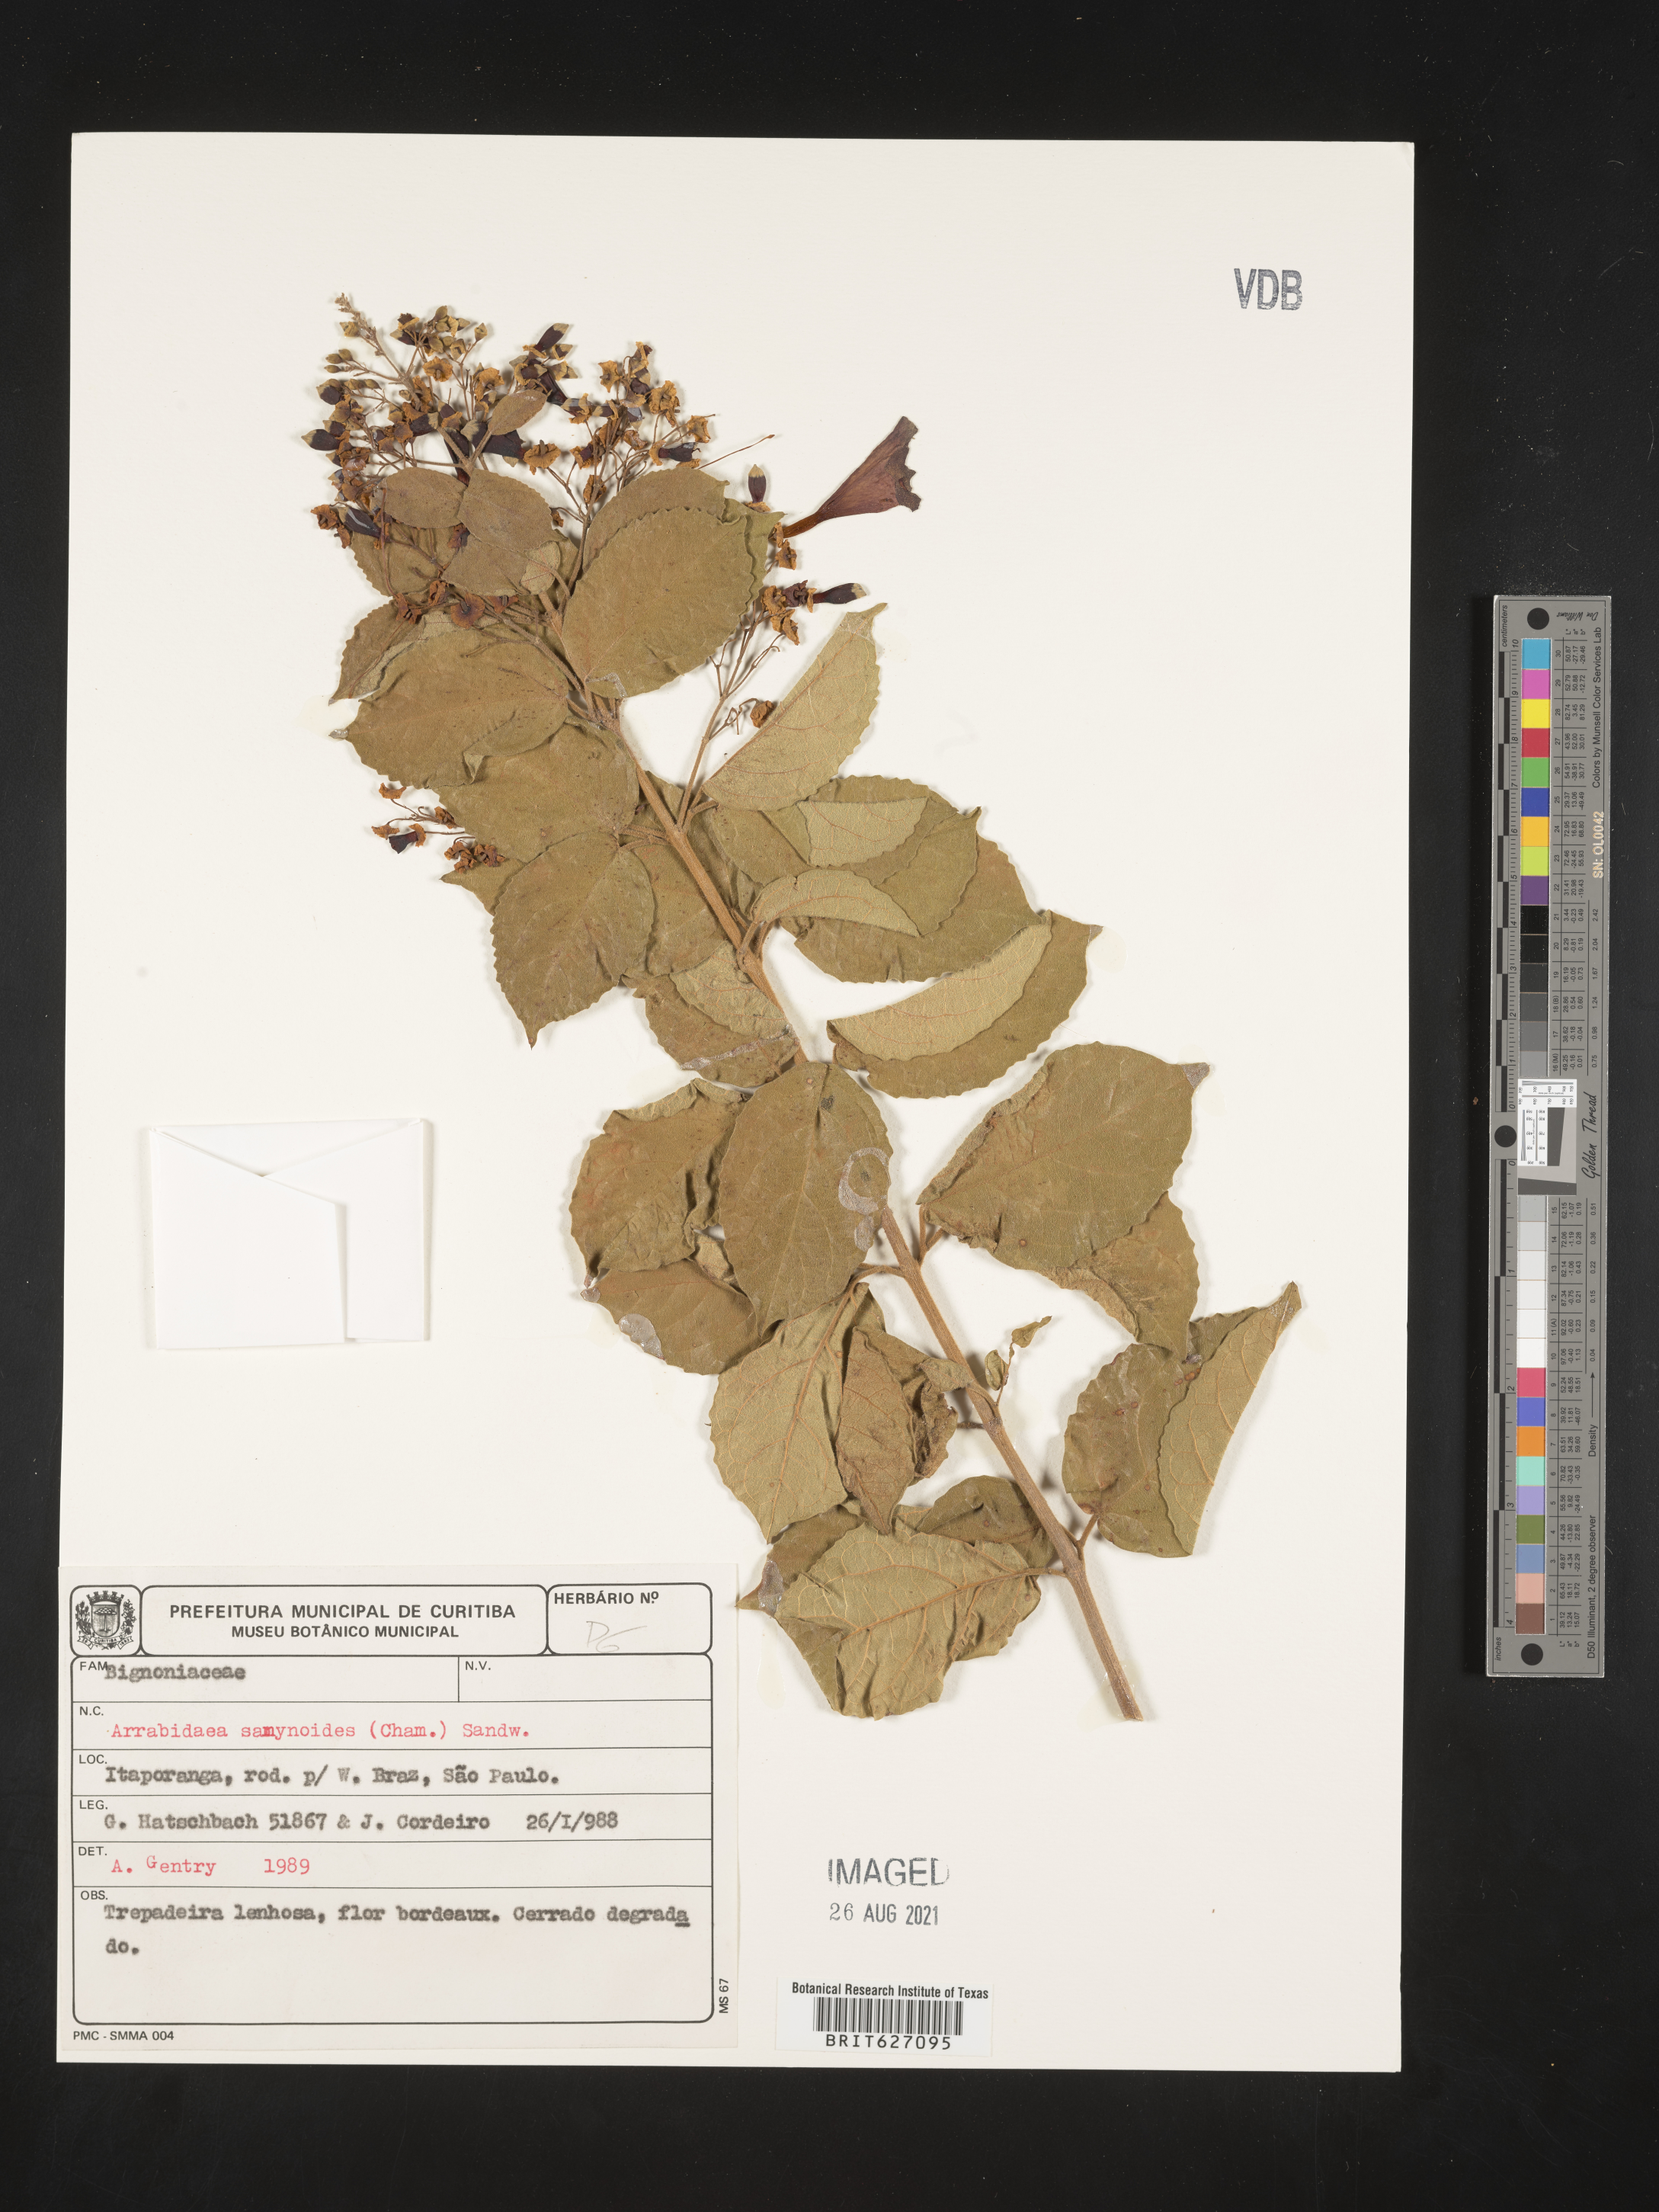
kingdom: Plantae
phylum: Tracheophyta
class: Magnoliopsida
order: Lamiales
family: Bignoniaceae
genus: Fridericia
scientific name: Fridericia samydoides
